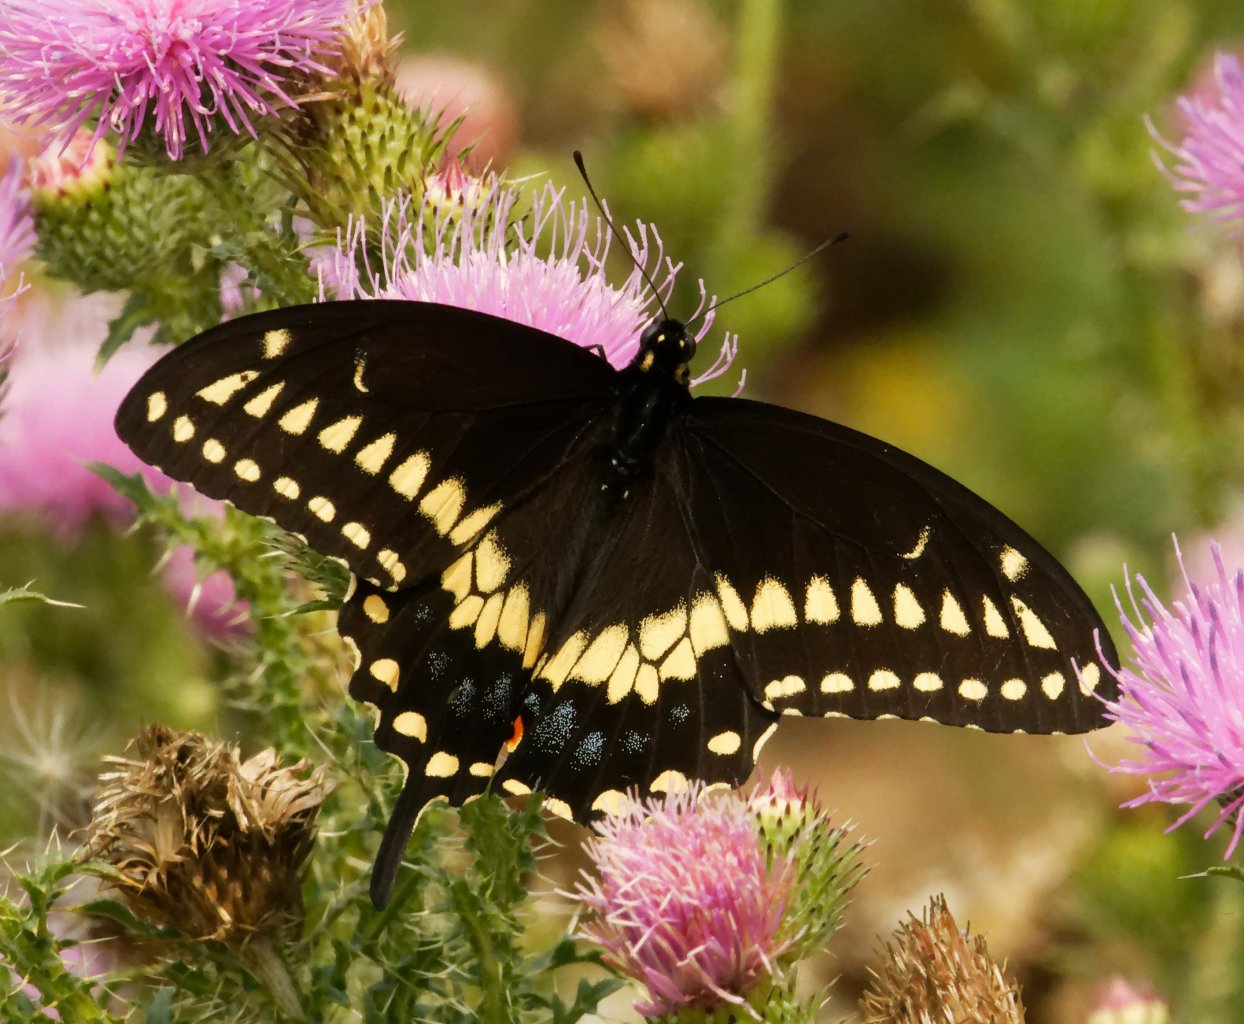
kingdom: Animalia
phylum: Arthropoda
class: Insecta
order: Lepidoptera
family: Papilionidae
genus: Papilio
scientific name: Papilio polyxenes
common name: Black Swallowtail
